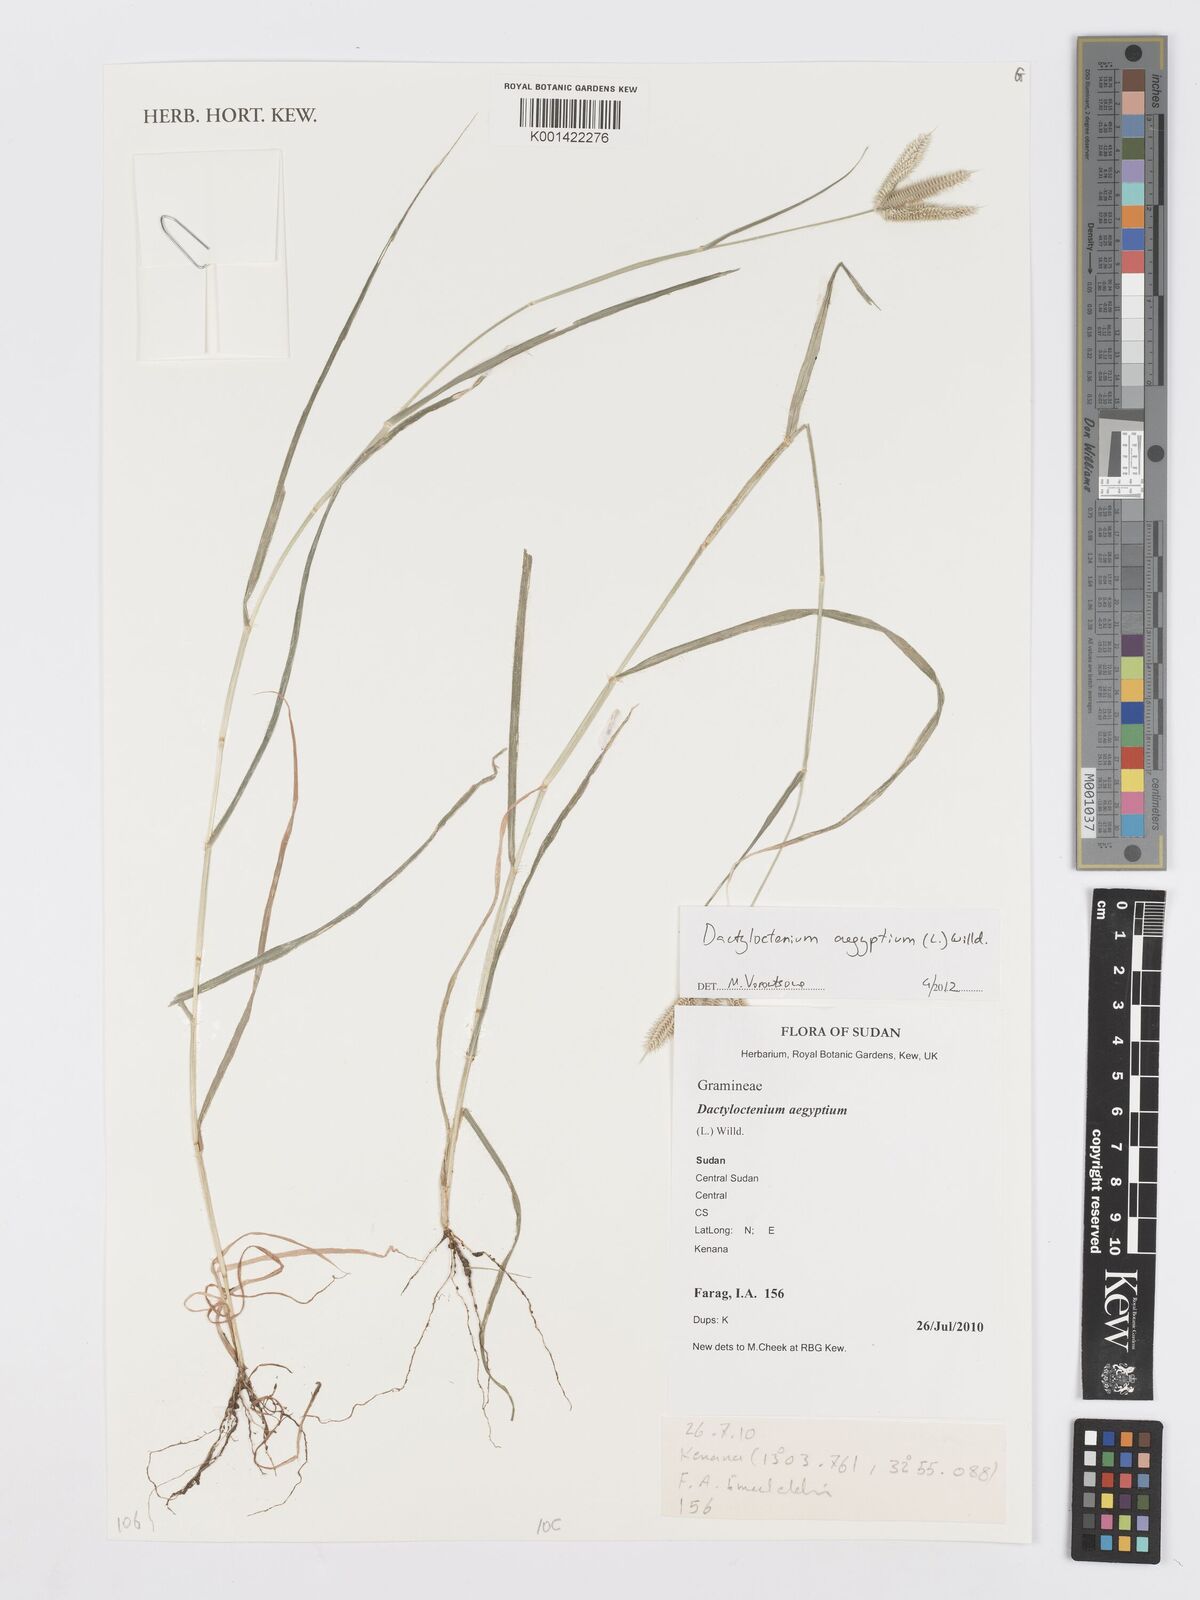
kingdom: Plantae
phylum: Tracheophyta
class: Liliopsida
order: Poales
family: Poaceae
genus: Dactyloctenium
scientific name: Dactyloctenium aegyptium
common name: Egyptian grass
